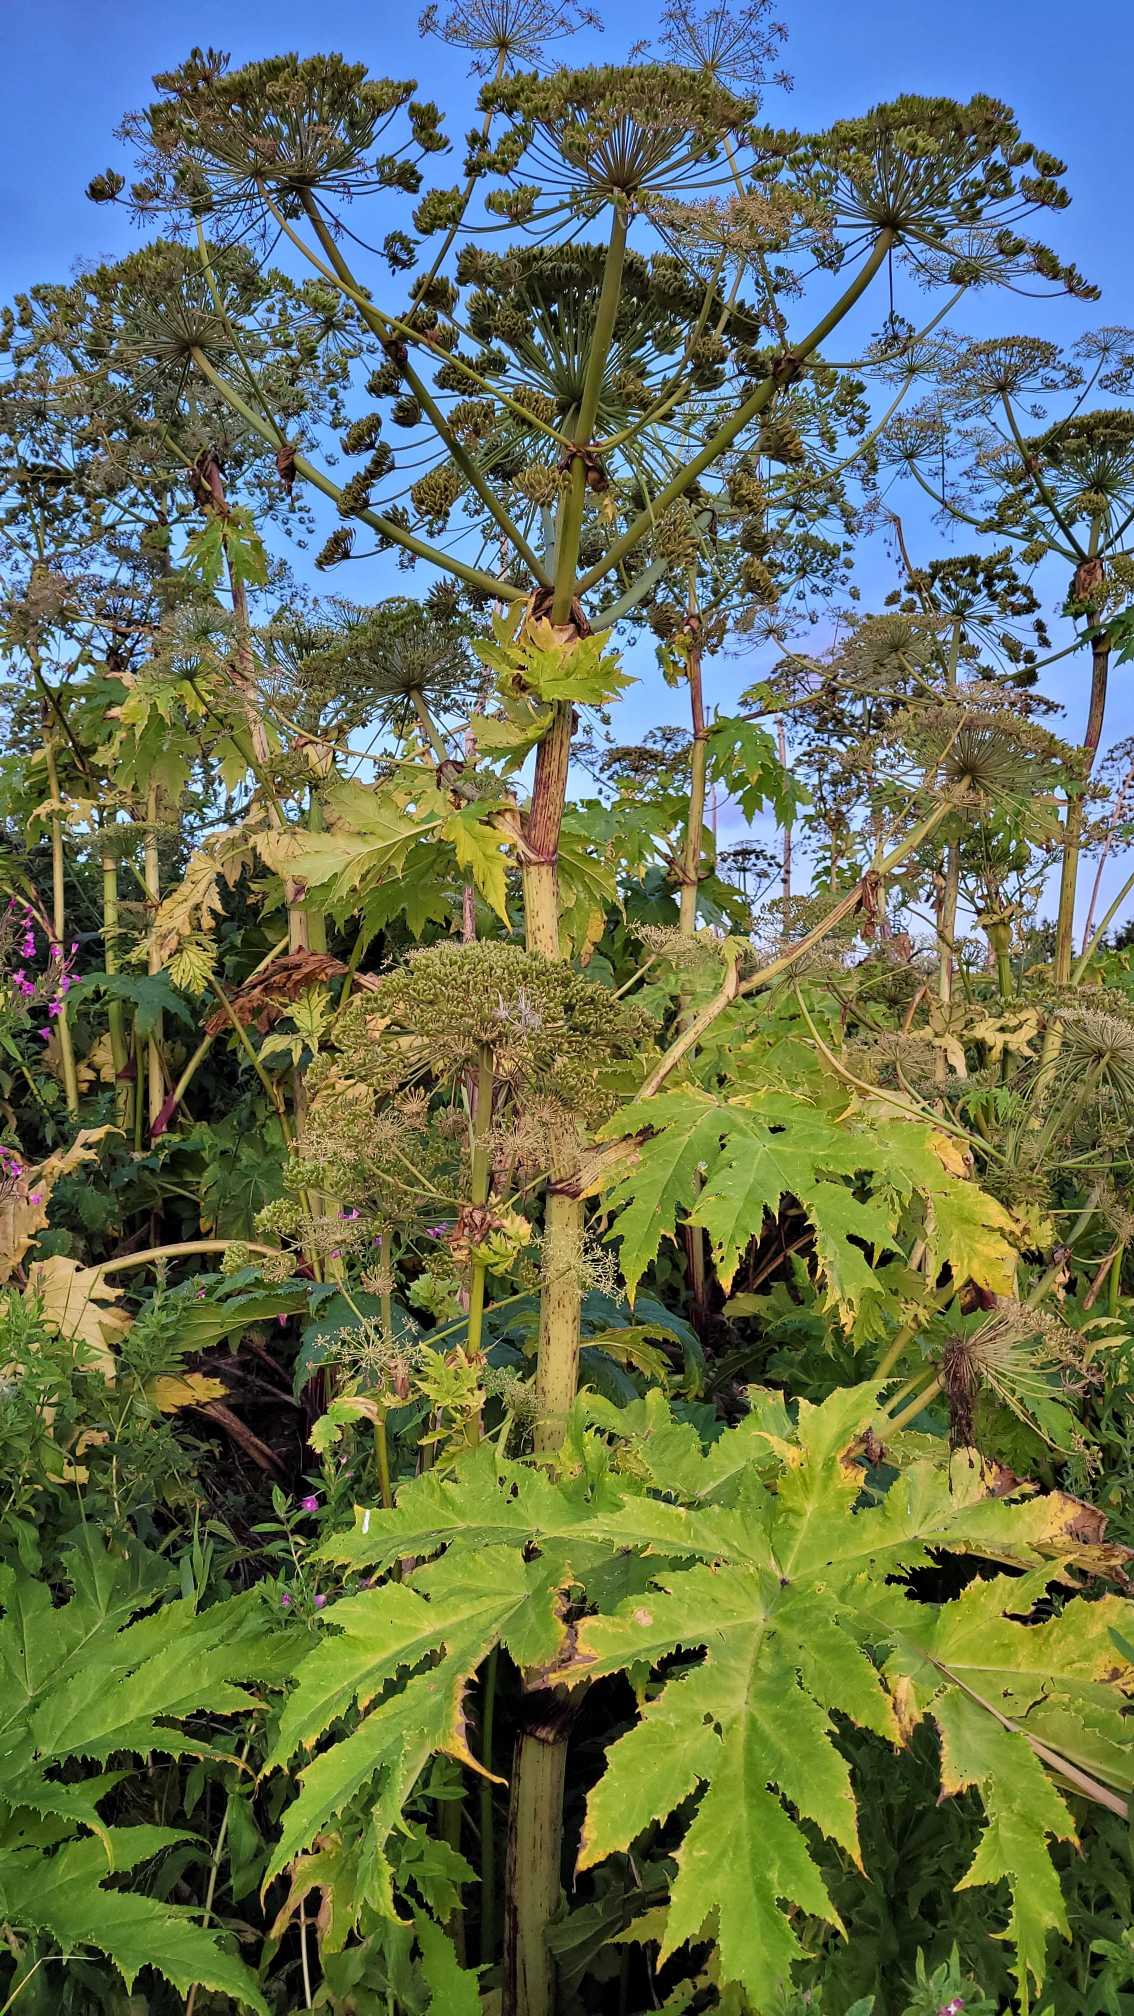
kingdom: Plantae
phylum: Tracheophyta
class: Magnoliopsida
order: Apiales
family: Apiaceae
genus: Heracleum
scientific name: Heracleum mantegazzianum
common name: Kæmpe-bjørneklo
